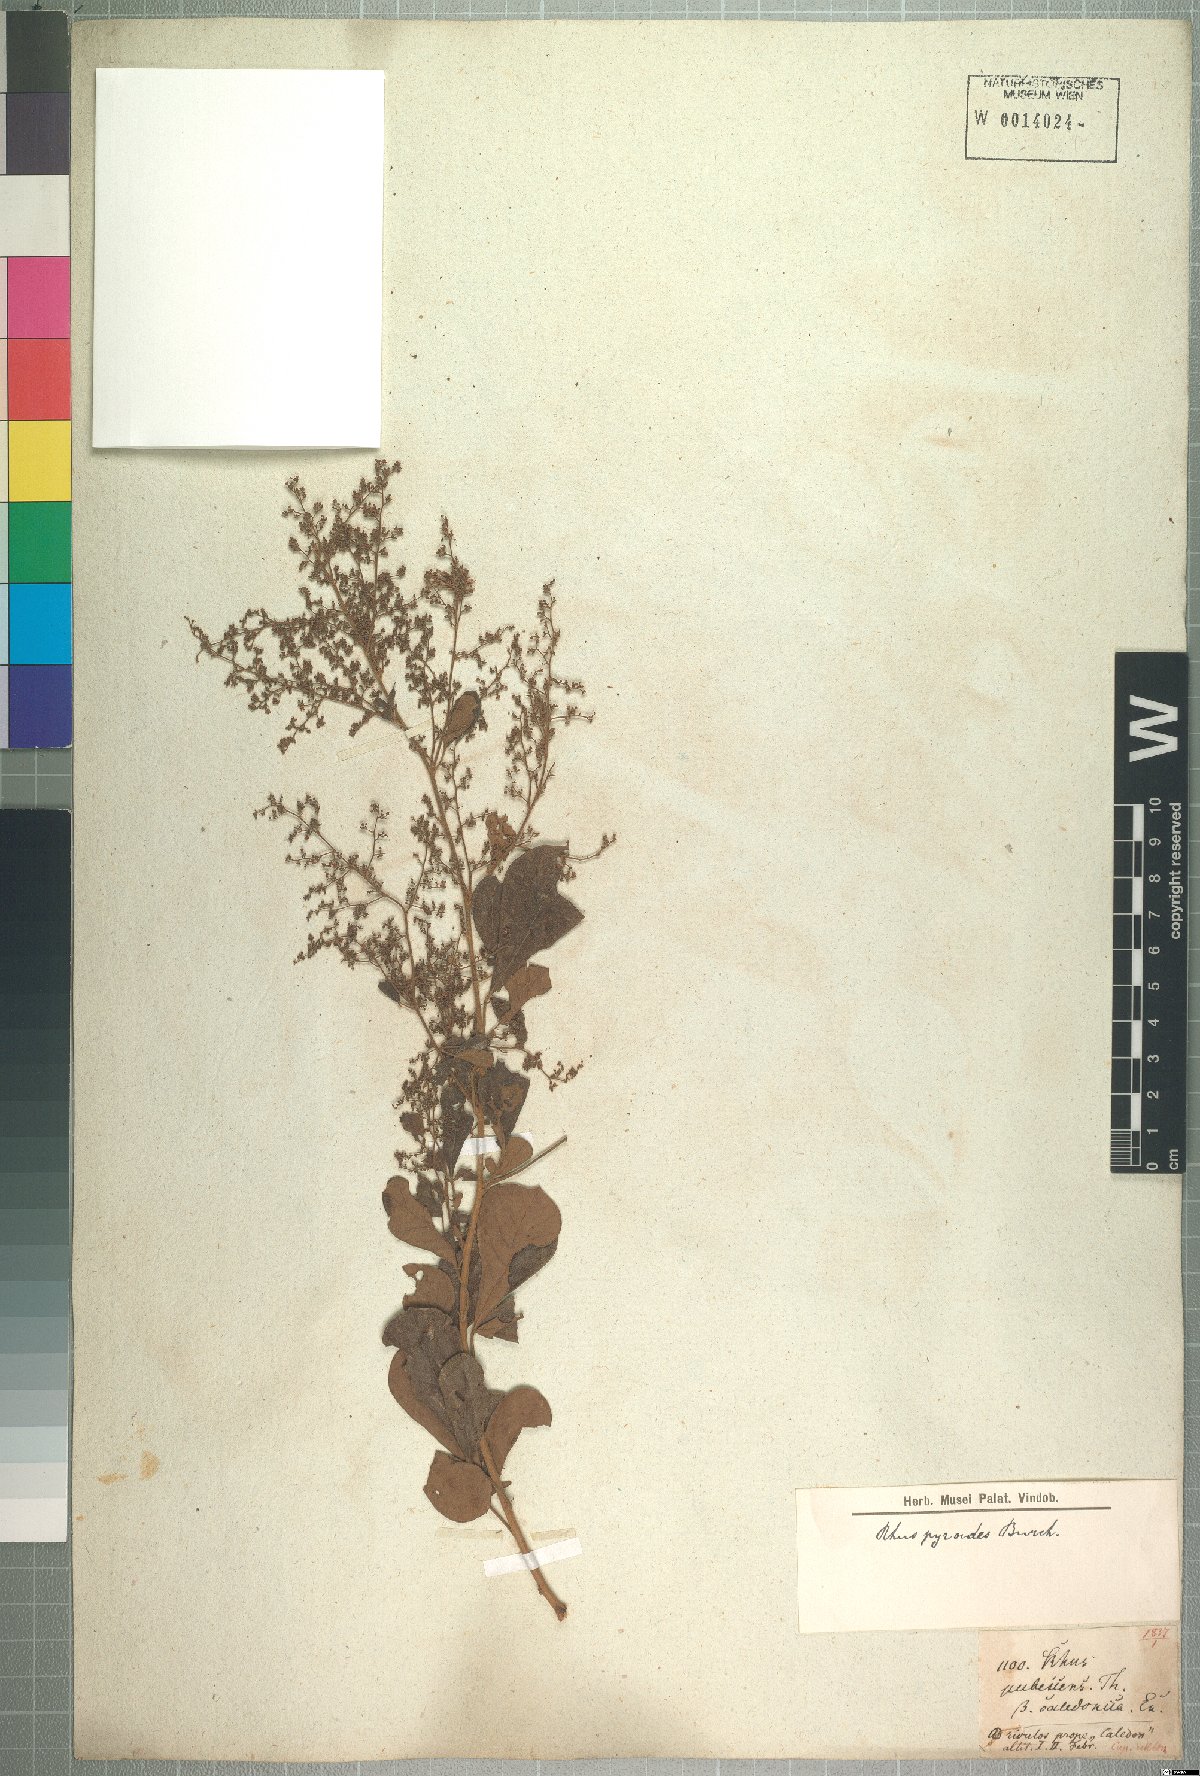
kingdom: Plantae
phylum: Tracheophyta
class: Magnoliopsida
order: Sapindales
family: Anacardiaceae
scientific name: Anacardiaceae
